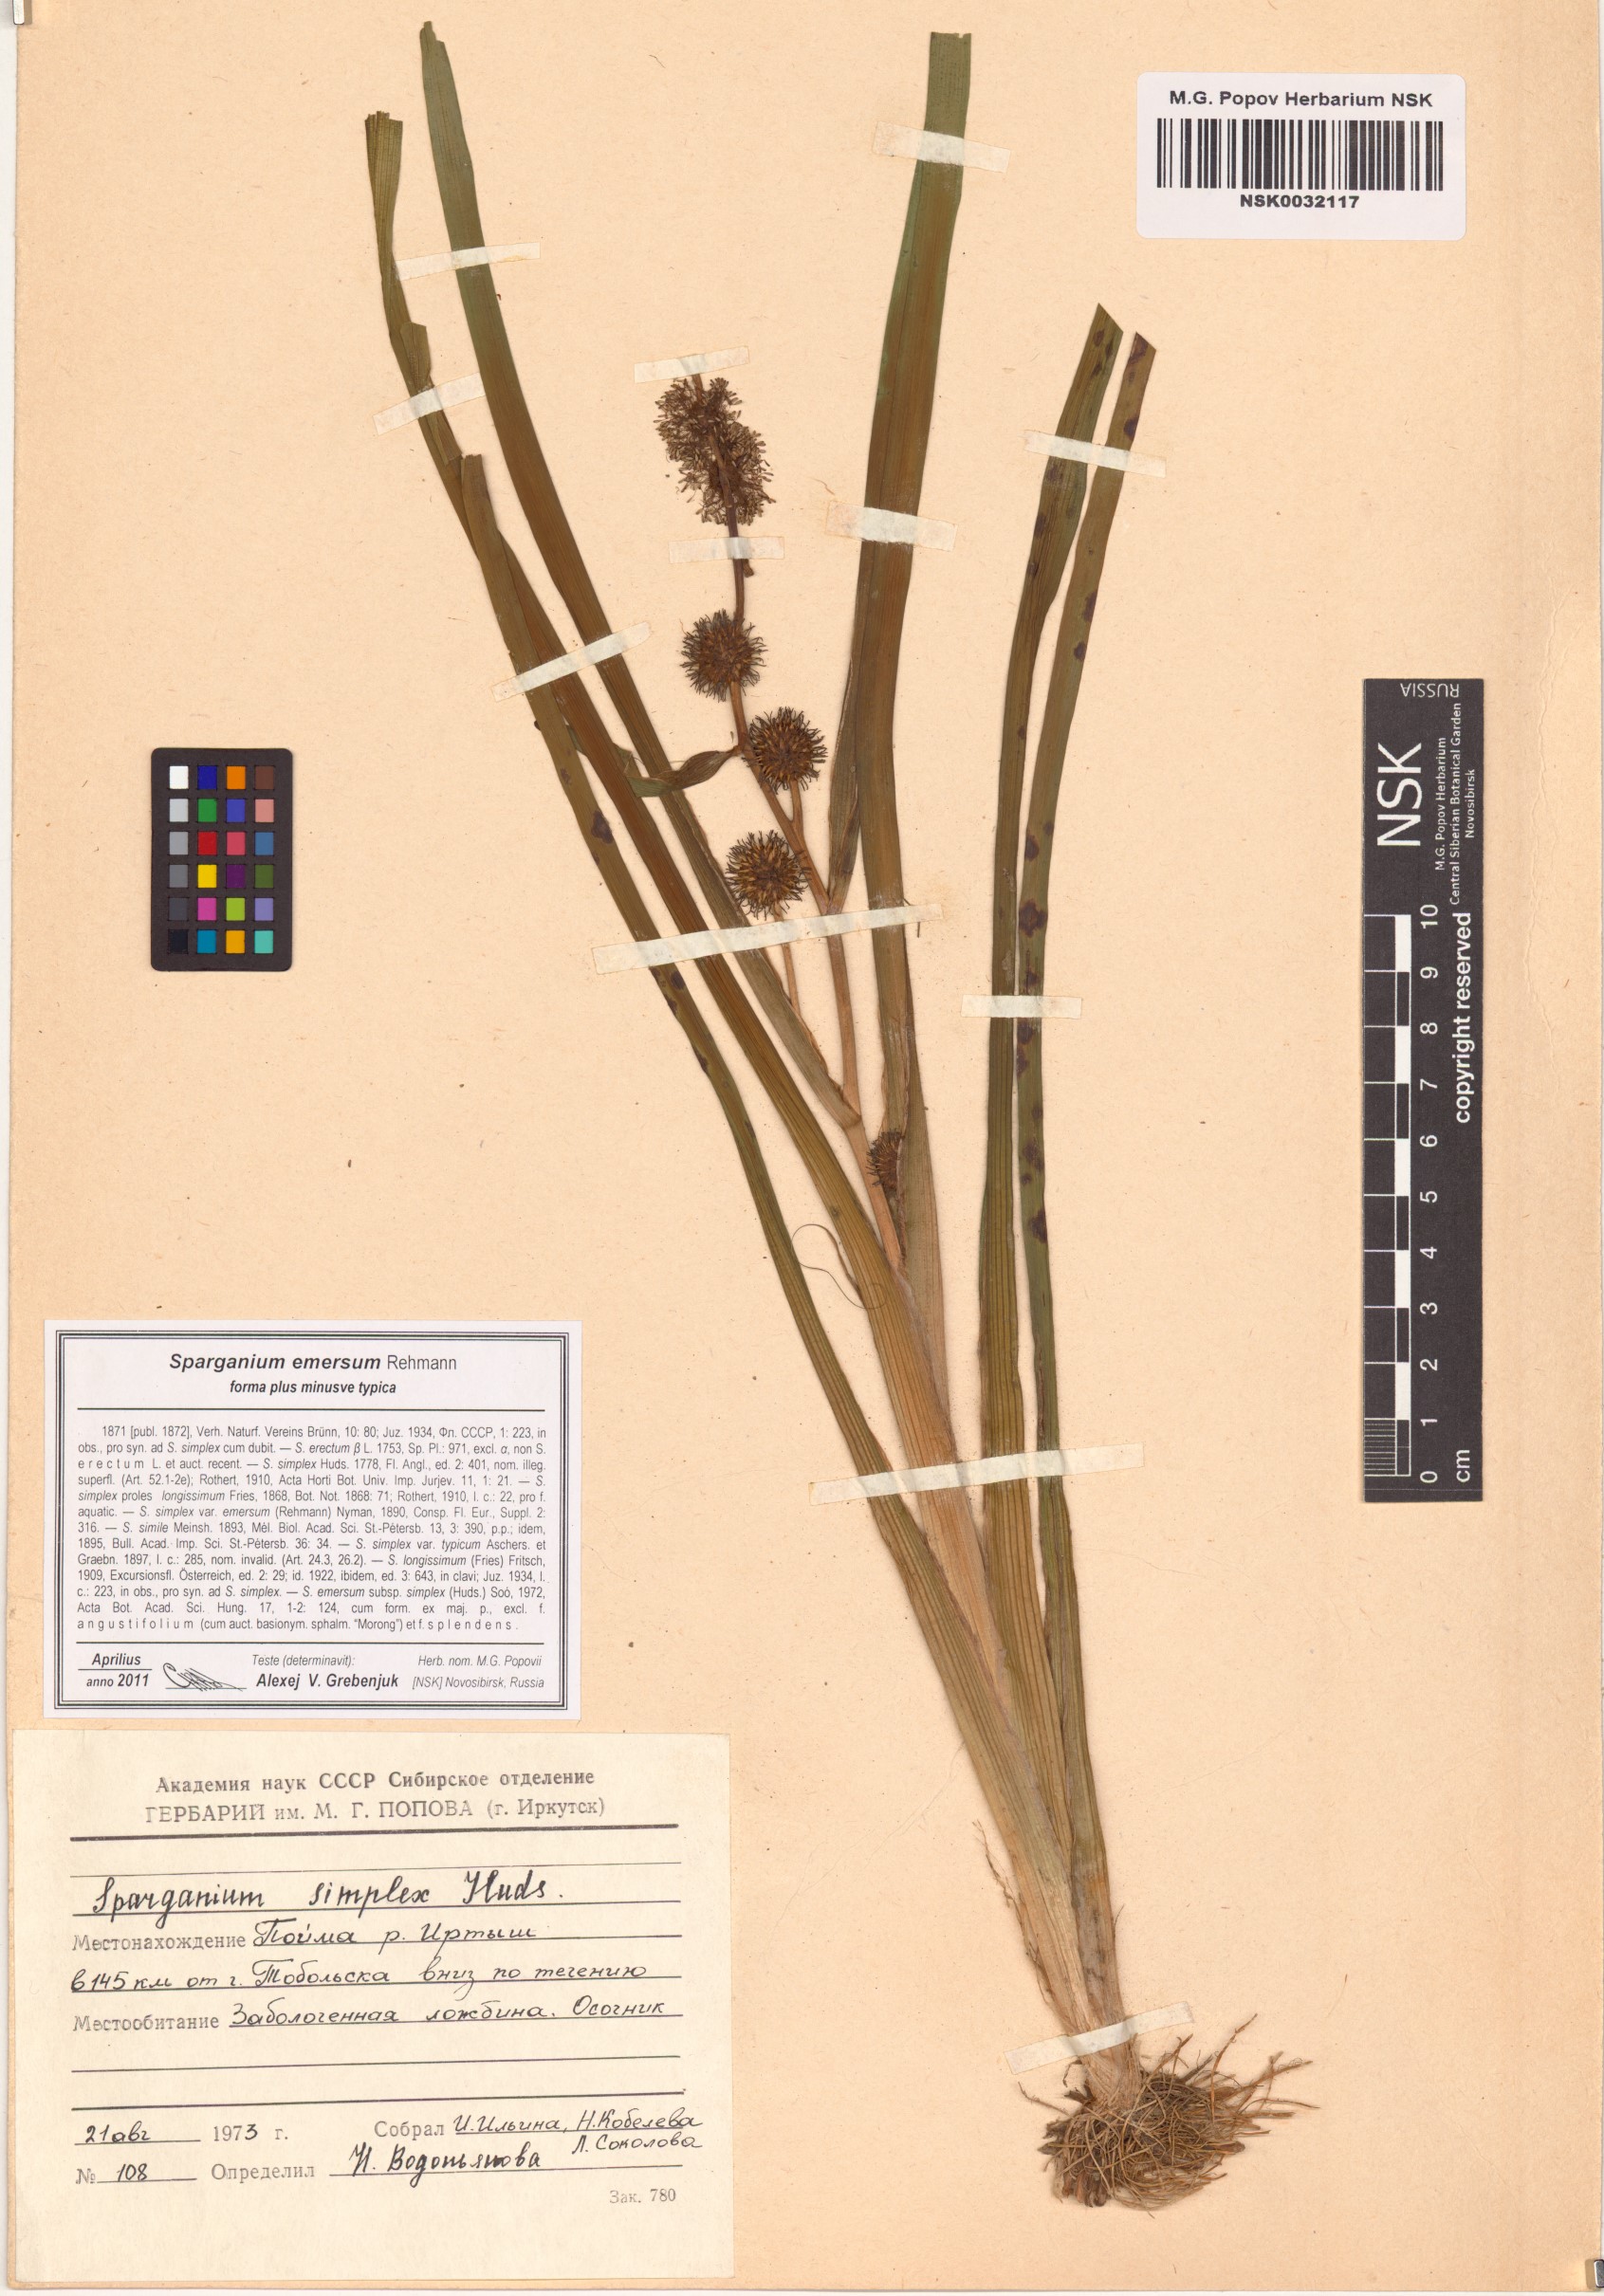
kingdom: Plantae
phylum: Tracheophyta
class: Liliopsida
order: Poales
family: Typhaceae
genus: Sparganium
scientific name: Sparganium emersum
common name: Unbranched bur-reed
